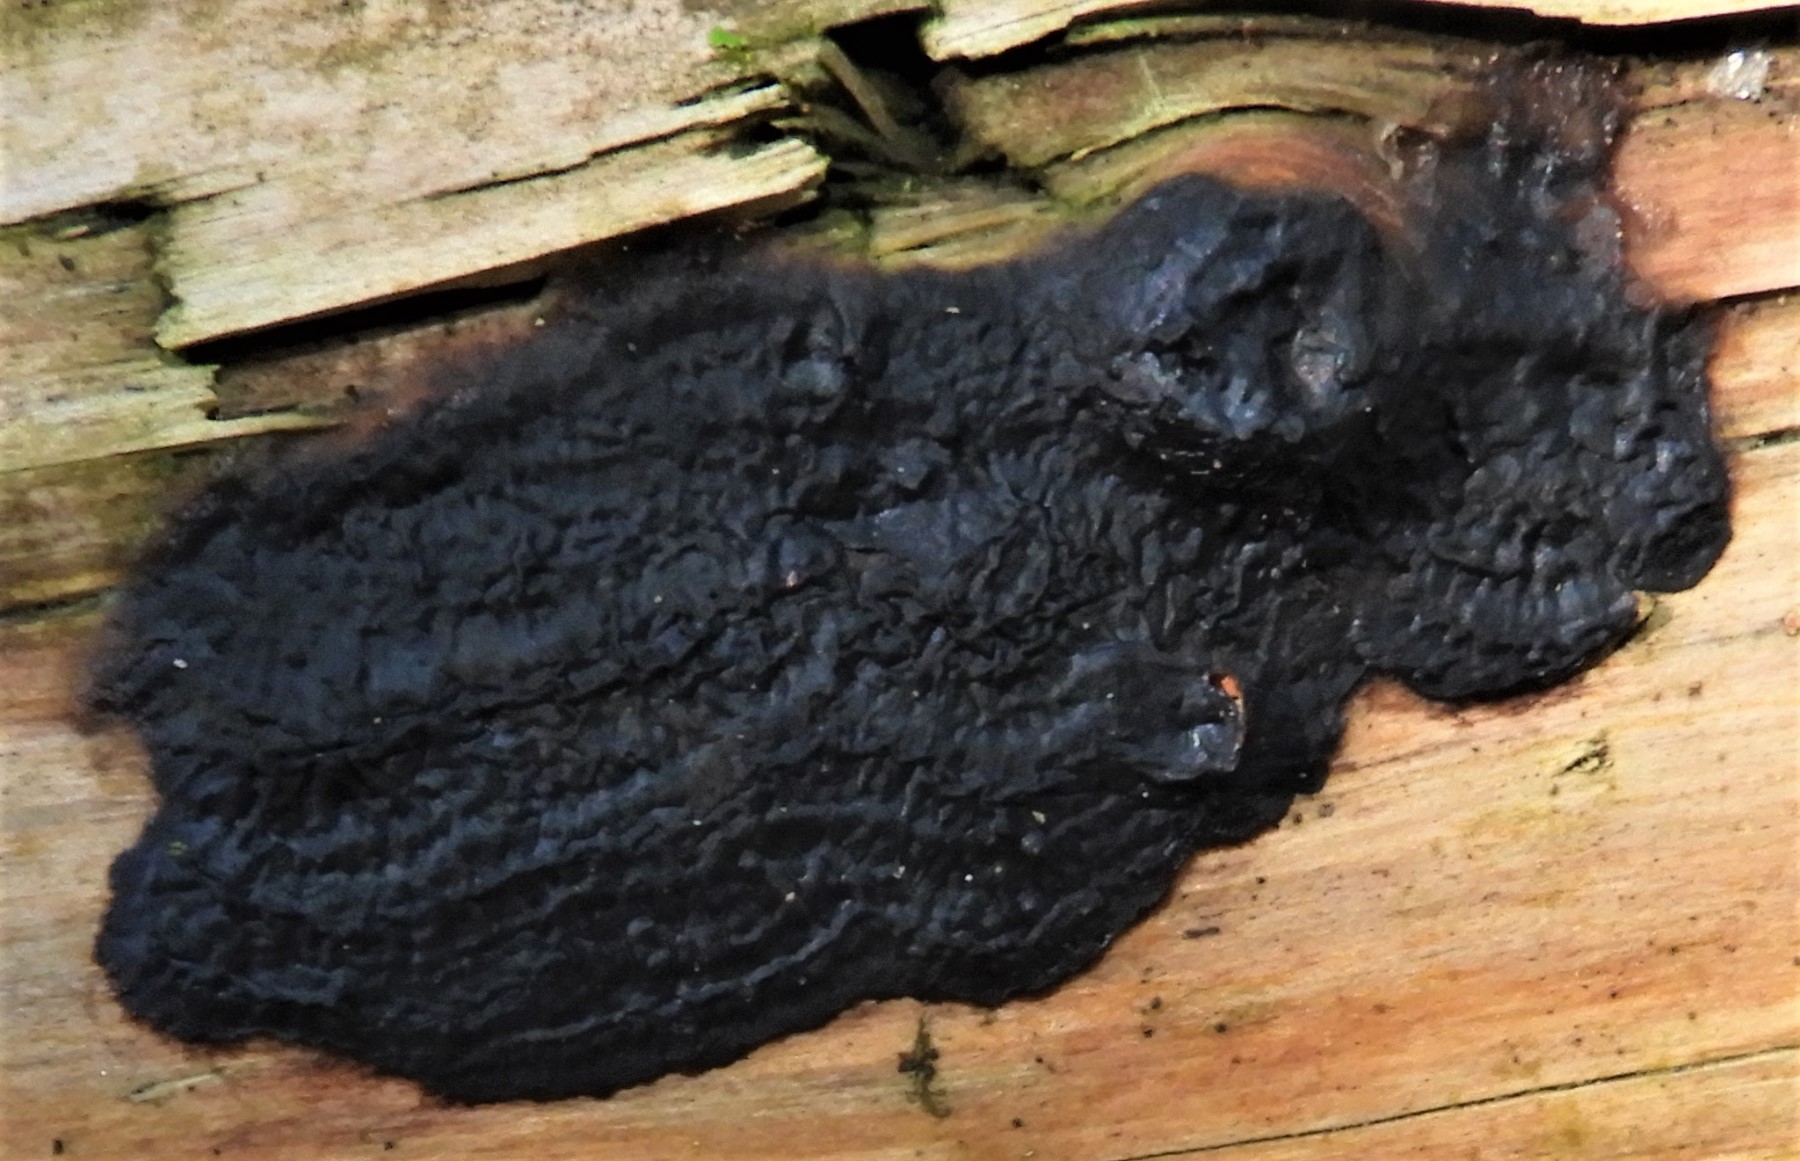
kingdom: Fungi
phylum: Basidiomycota
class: Agaricomycetes
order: Auriculariales
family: Auriculariaceae
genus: Exidia
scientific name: Exidia pithya
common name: gran-bævretop
